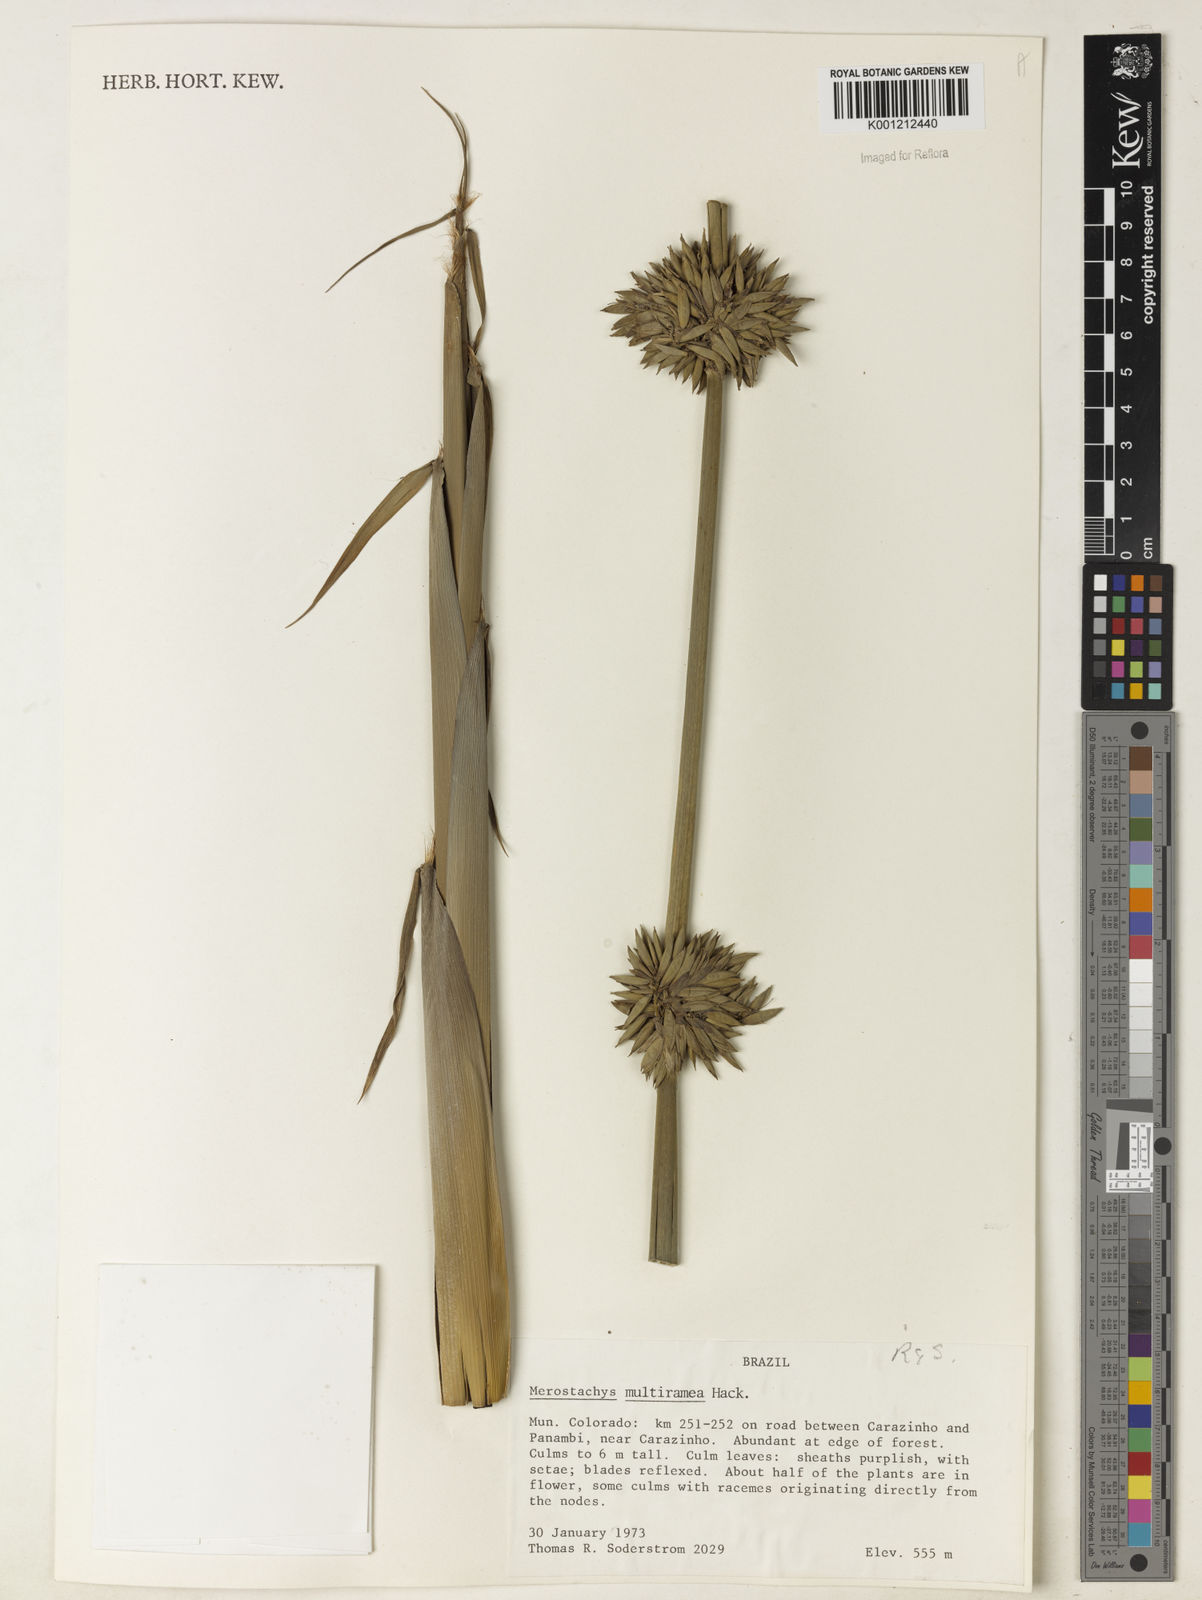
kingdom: Plantae
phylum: Tracheophyta
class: Liliopsida
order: Poales
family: Poaceae
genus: Merostachys
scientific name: Merostachys multiramea
